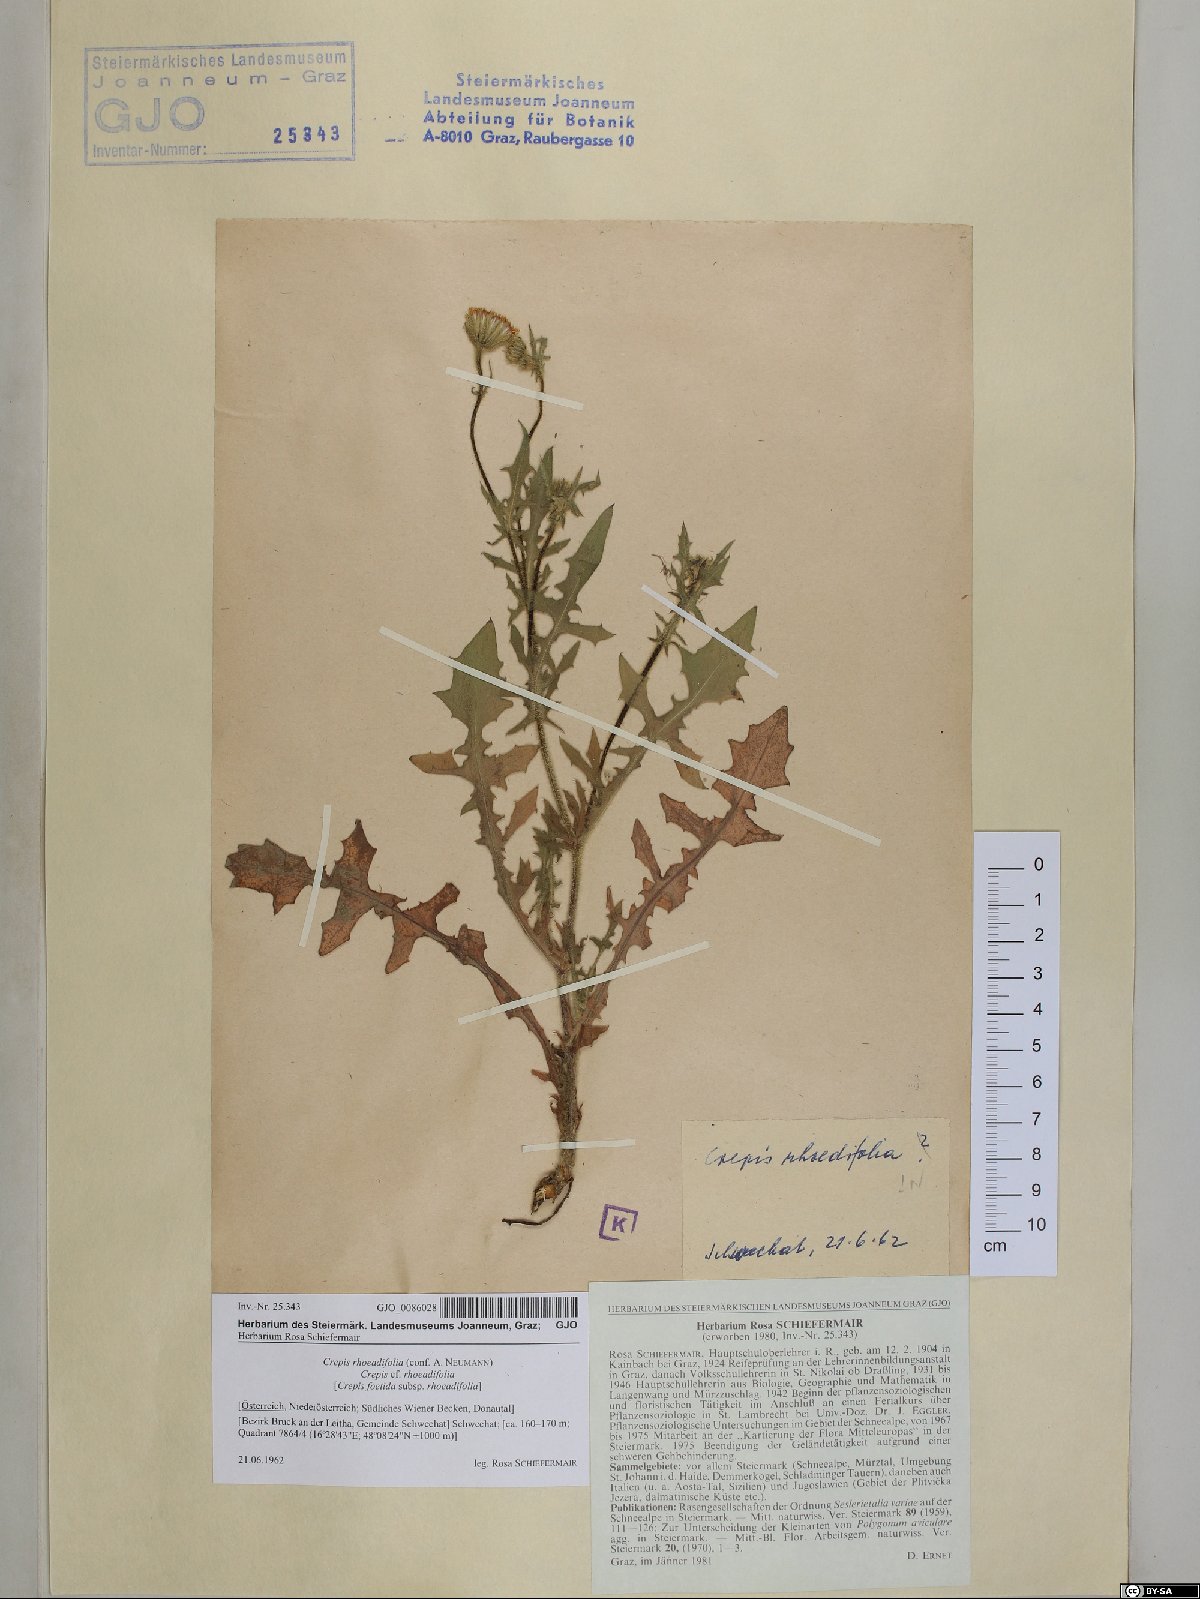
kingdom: Plantae
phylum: Tracheophyta
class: Magnoliopsida
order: Asterales
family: Asteraceae
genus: Crepis
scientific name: Crepis foetida
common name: Stinking hawk's-beard
